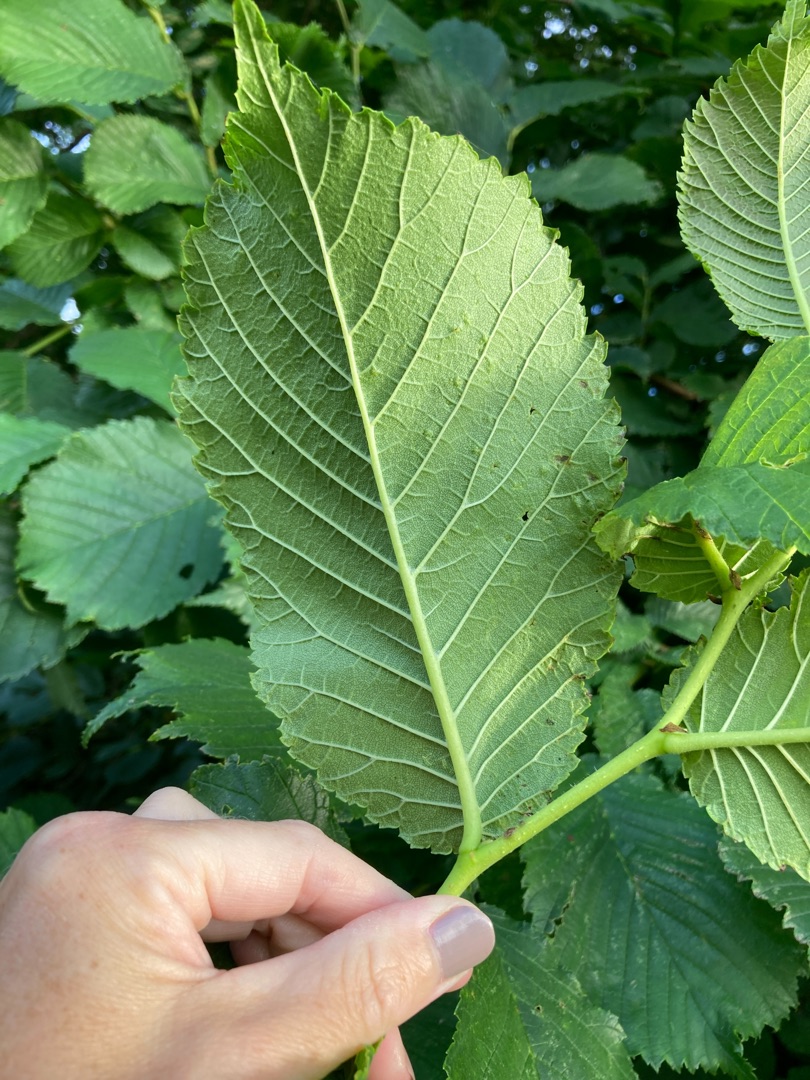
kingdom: Plantae
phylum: Tracheophyta
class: Magnoliopsida
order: Rosales
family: Ulmaceae
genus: Ulmus
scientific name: Ulmus glabra
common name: Skov-elm/storbladet elm
